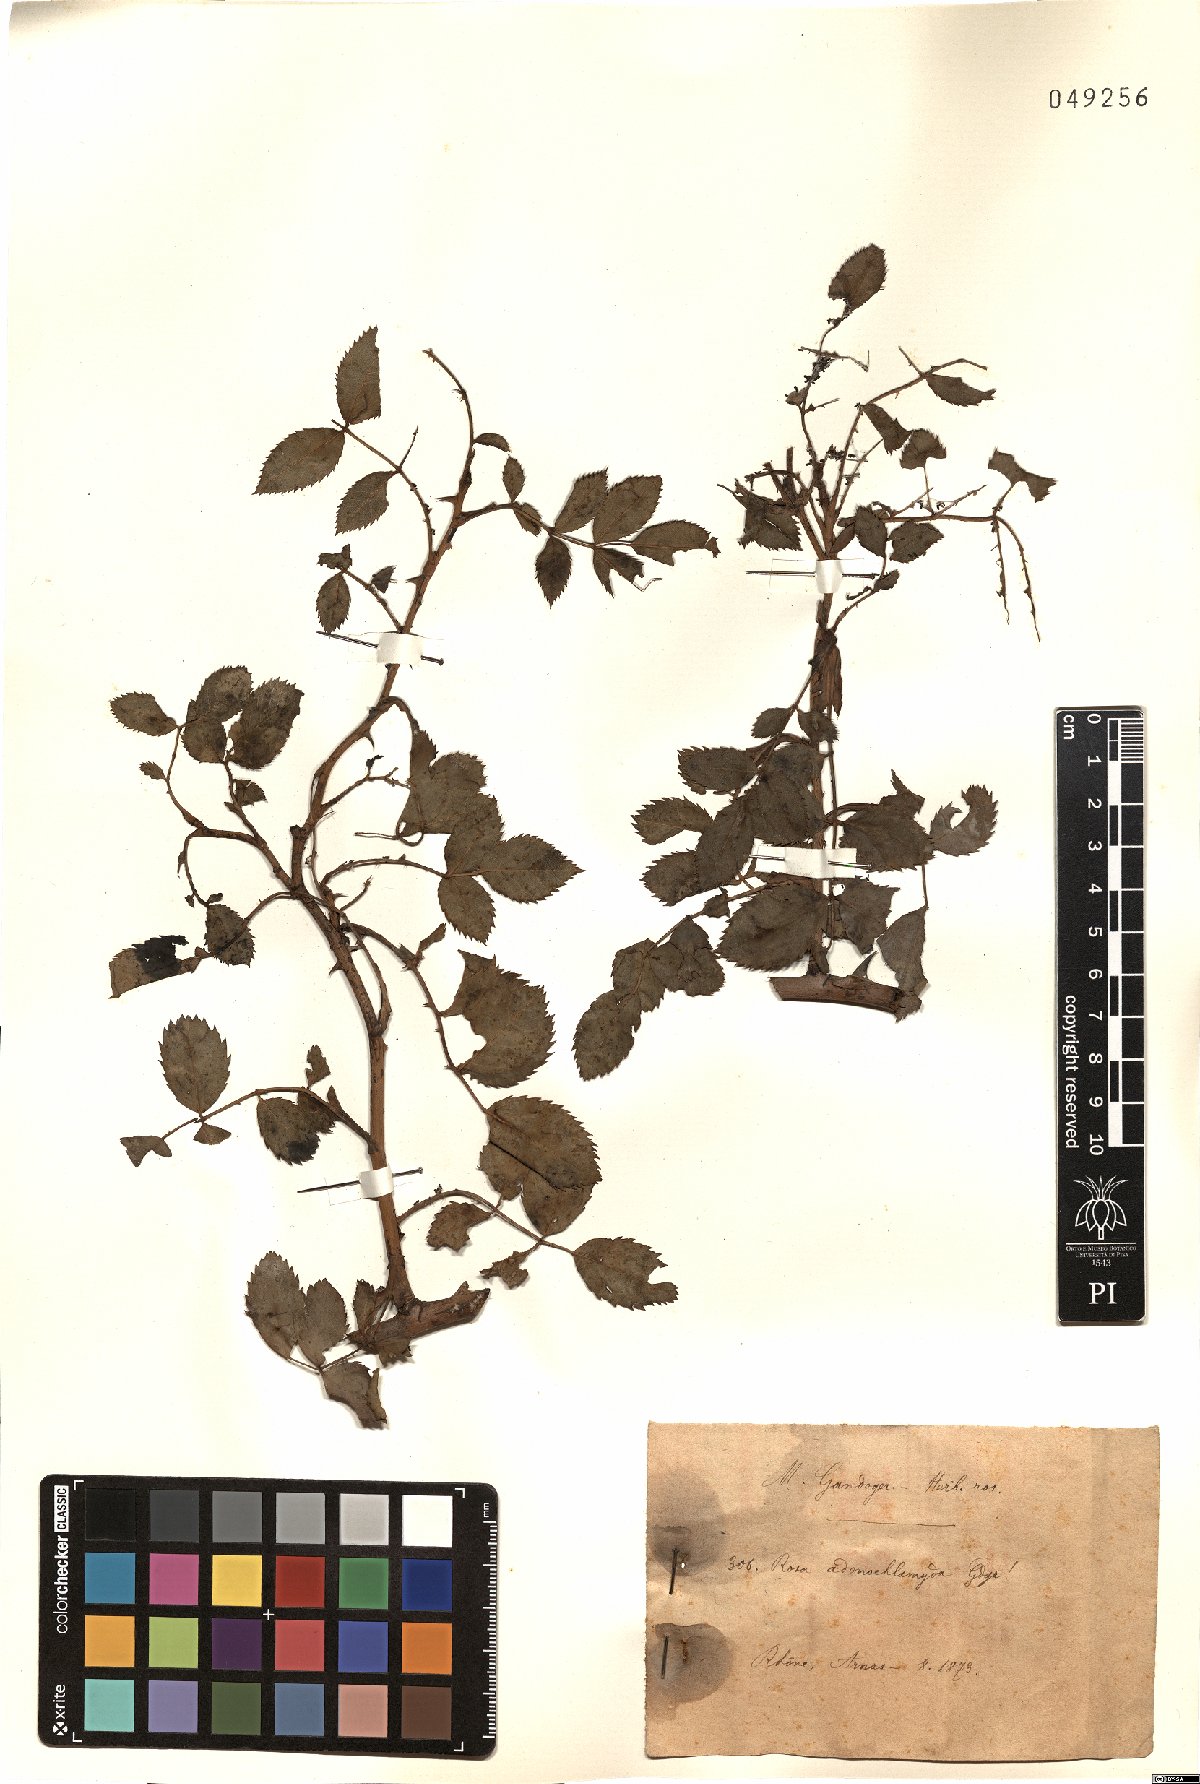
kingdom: Plantae
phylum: Tracheophyta
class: Magnoliopsida
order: Rosales
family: Rosaceae
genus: Rosa
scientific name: Rosa adenochlamyda
